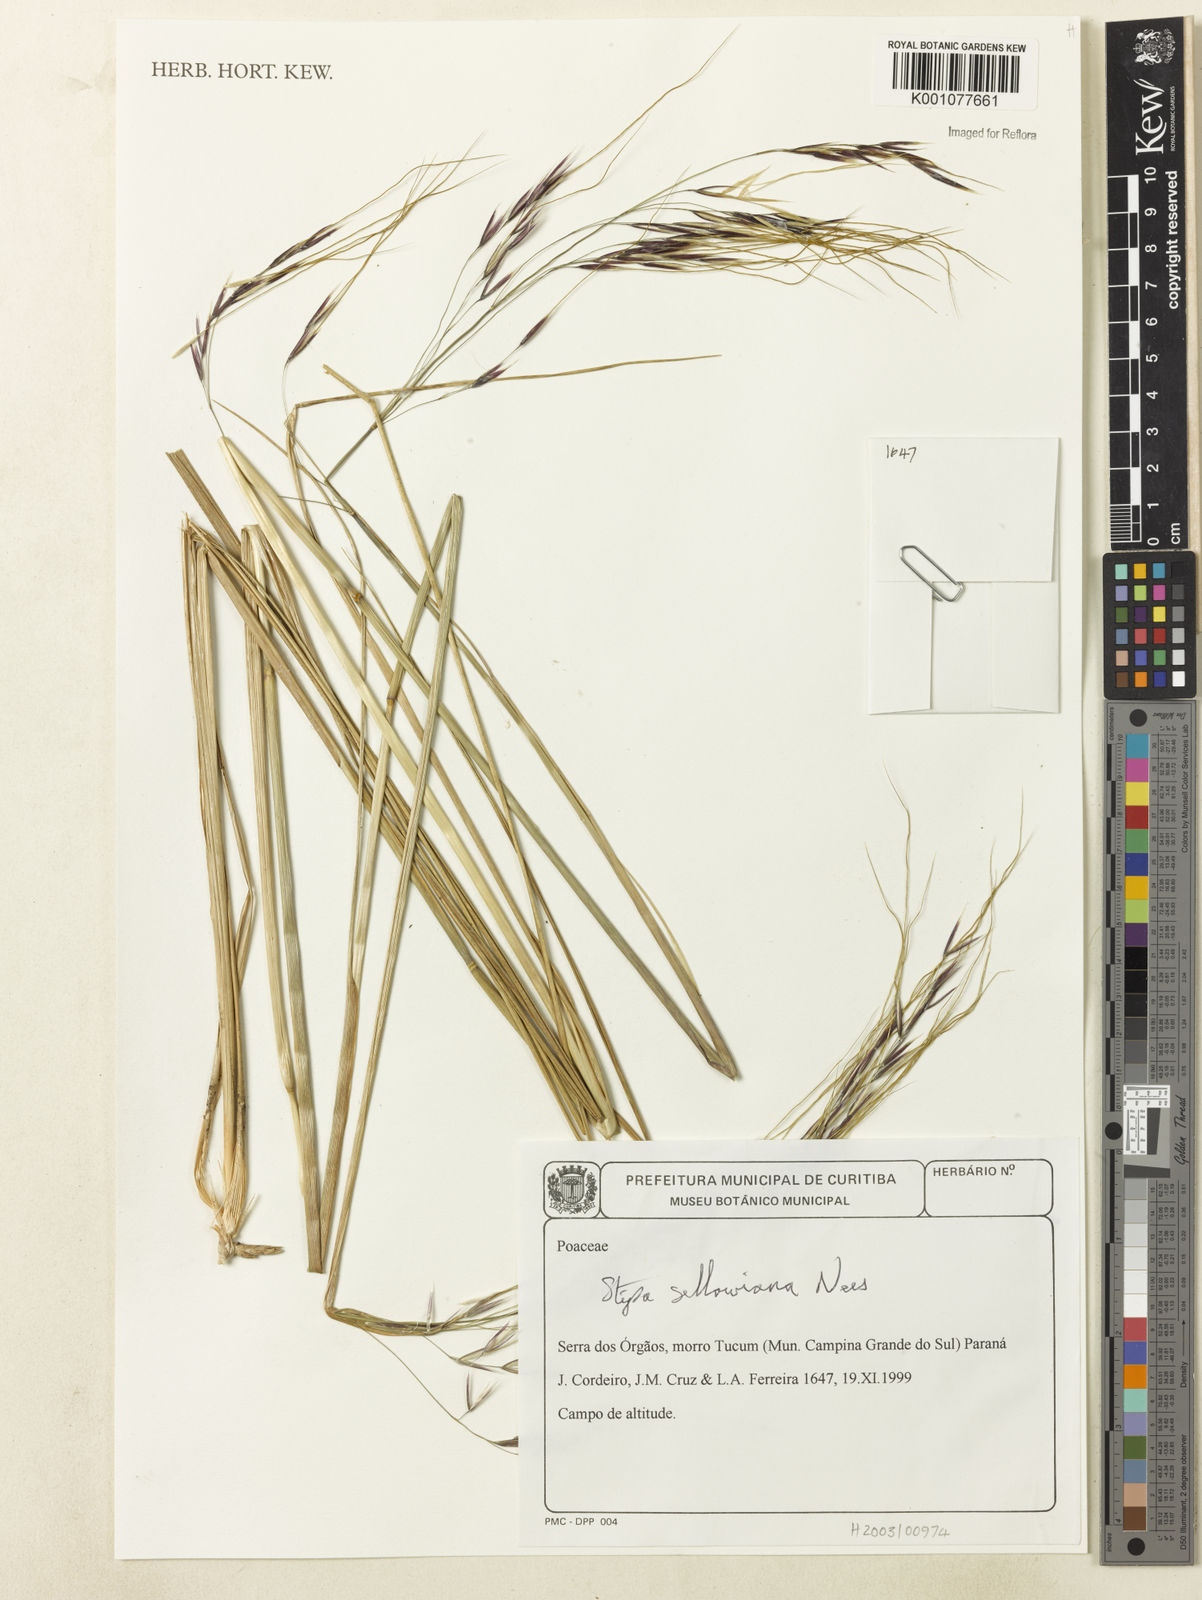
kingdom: Plantae
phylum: Tracheophyta
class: Liliopsida
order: Poales
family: Poaceae
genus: Nassella
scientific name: Nassella
